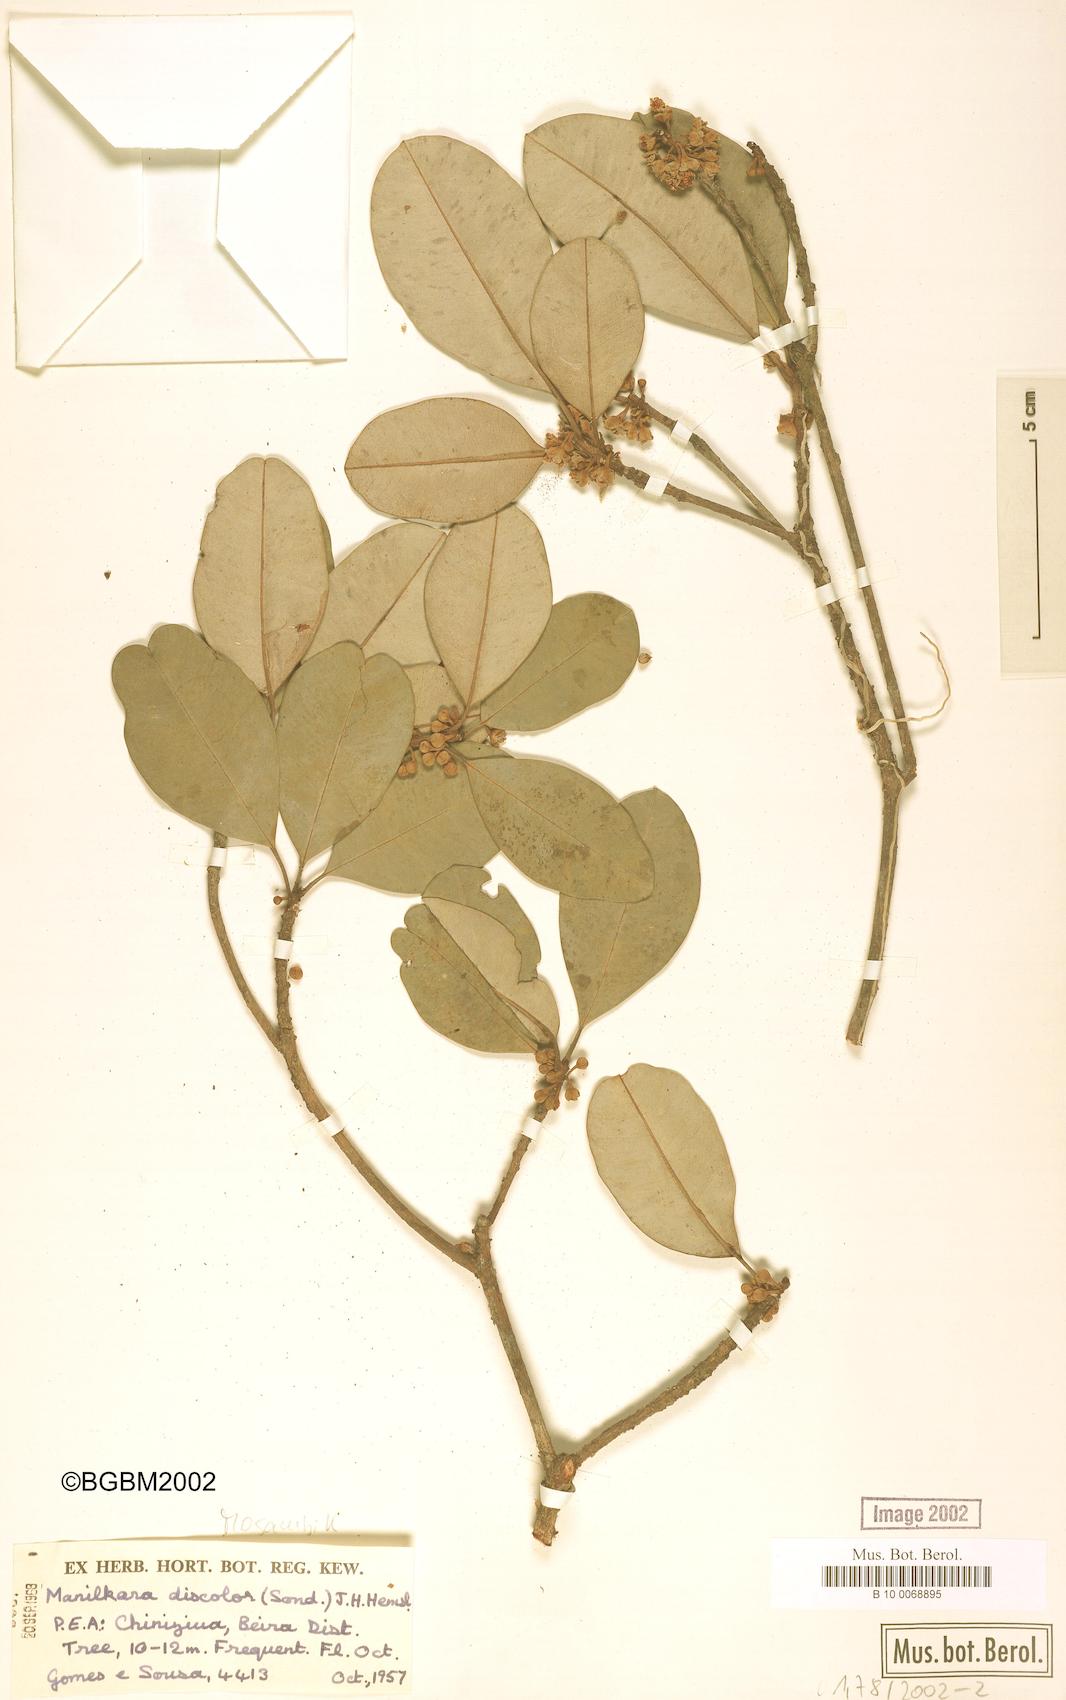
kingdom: Plantae
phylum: Tracheophyta
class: Magnoliopsida
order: Ericales
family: Sapotaceae
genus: Manilkara
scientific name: Manilkara discolor
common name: Forest milkberry
